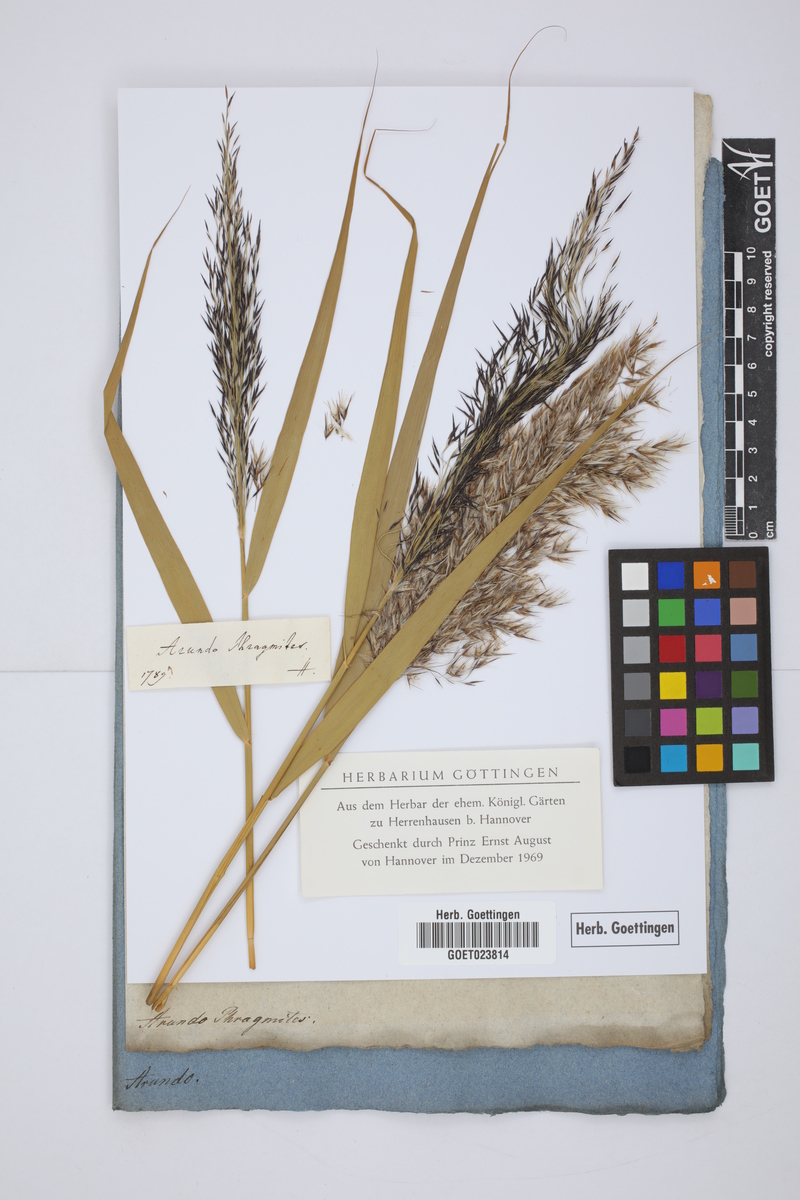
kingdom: Plantae
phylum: Tracheophyta
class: Liliopsida
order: Poales
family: Poaceae
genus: Phragmites
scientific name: Phragmites australis
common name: Common reed
